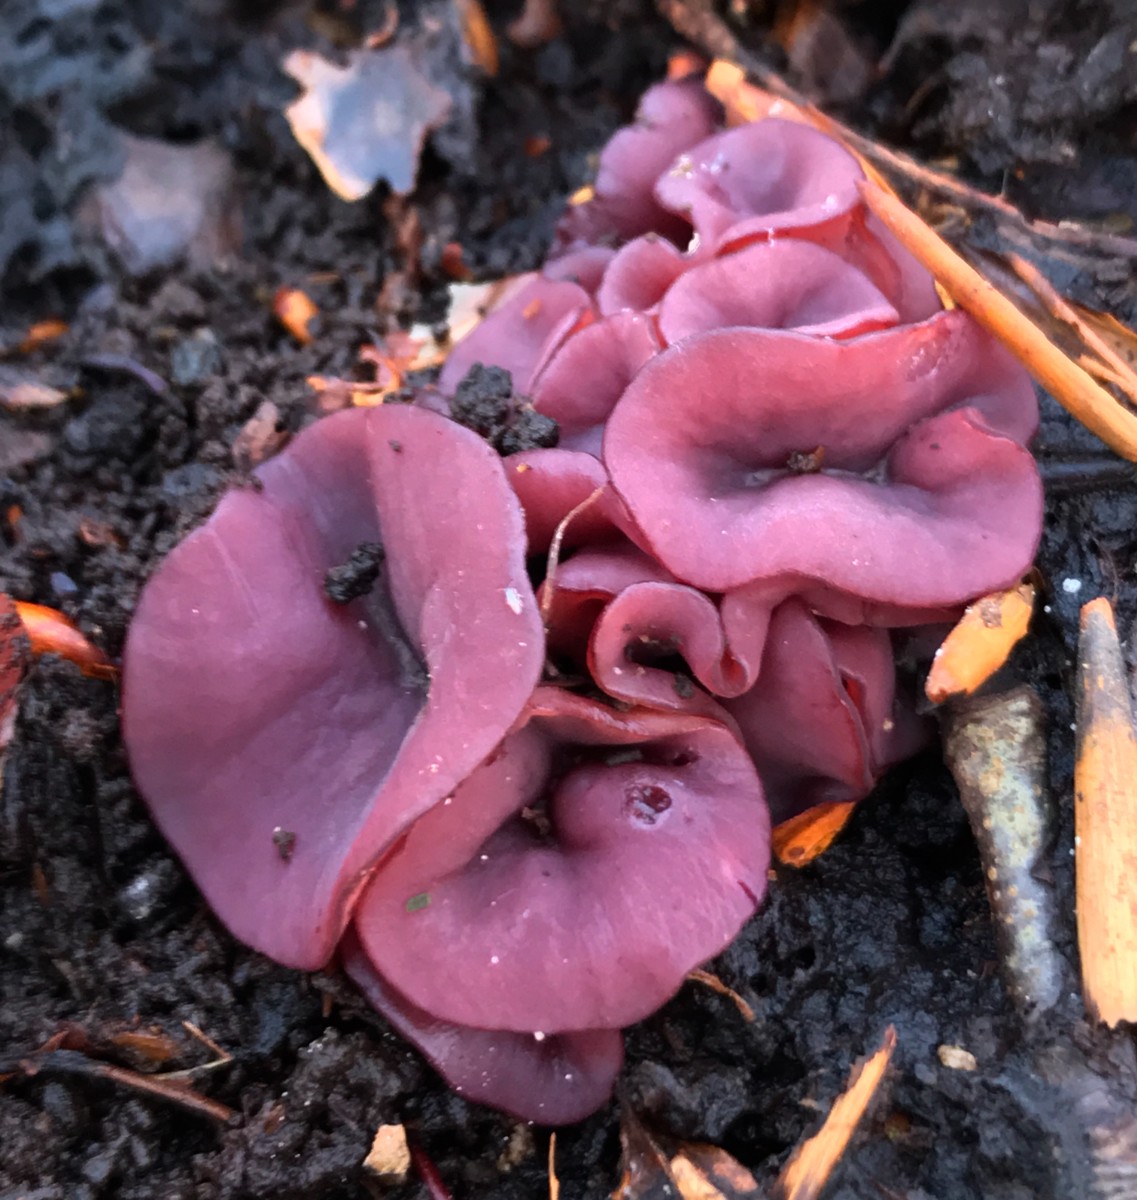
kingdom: Fungi
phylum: Ascomycota
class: Leotiomycetes
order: Helotiales
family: Gelatinodiscaceae
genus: Ascocoryne
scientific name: Ascocoryne cylichnium
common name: stor sejskive
